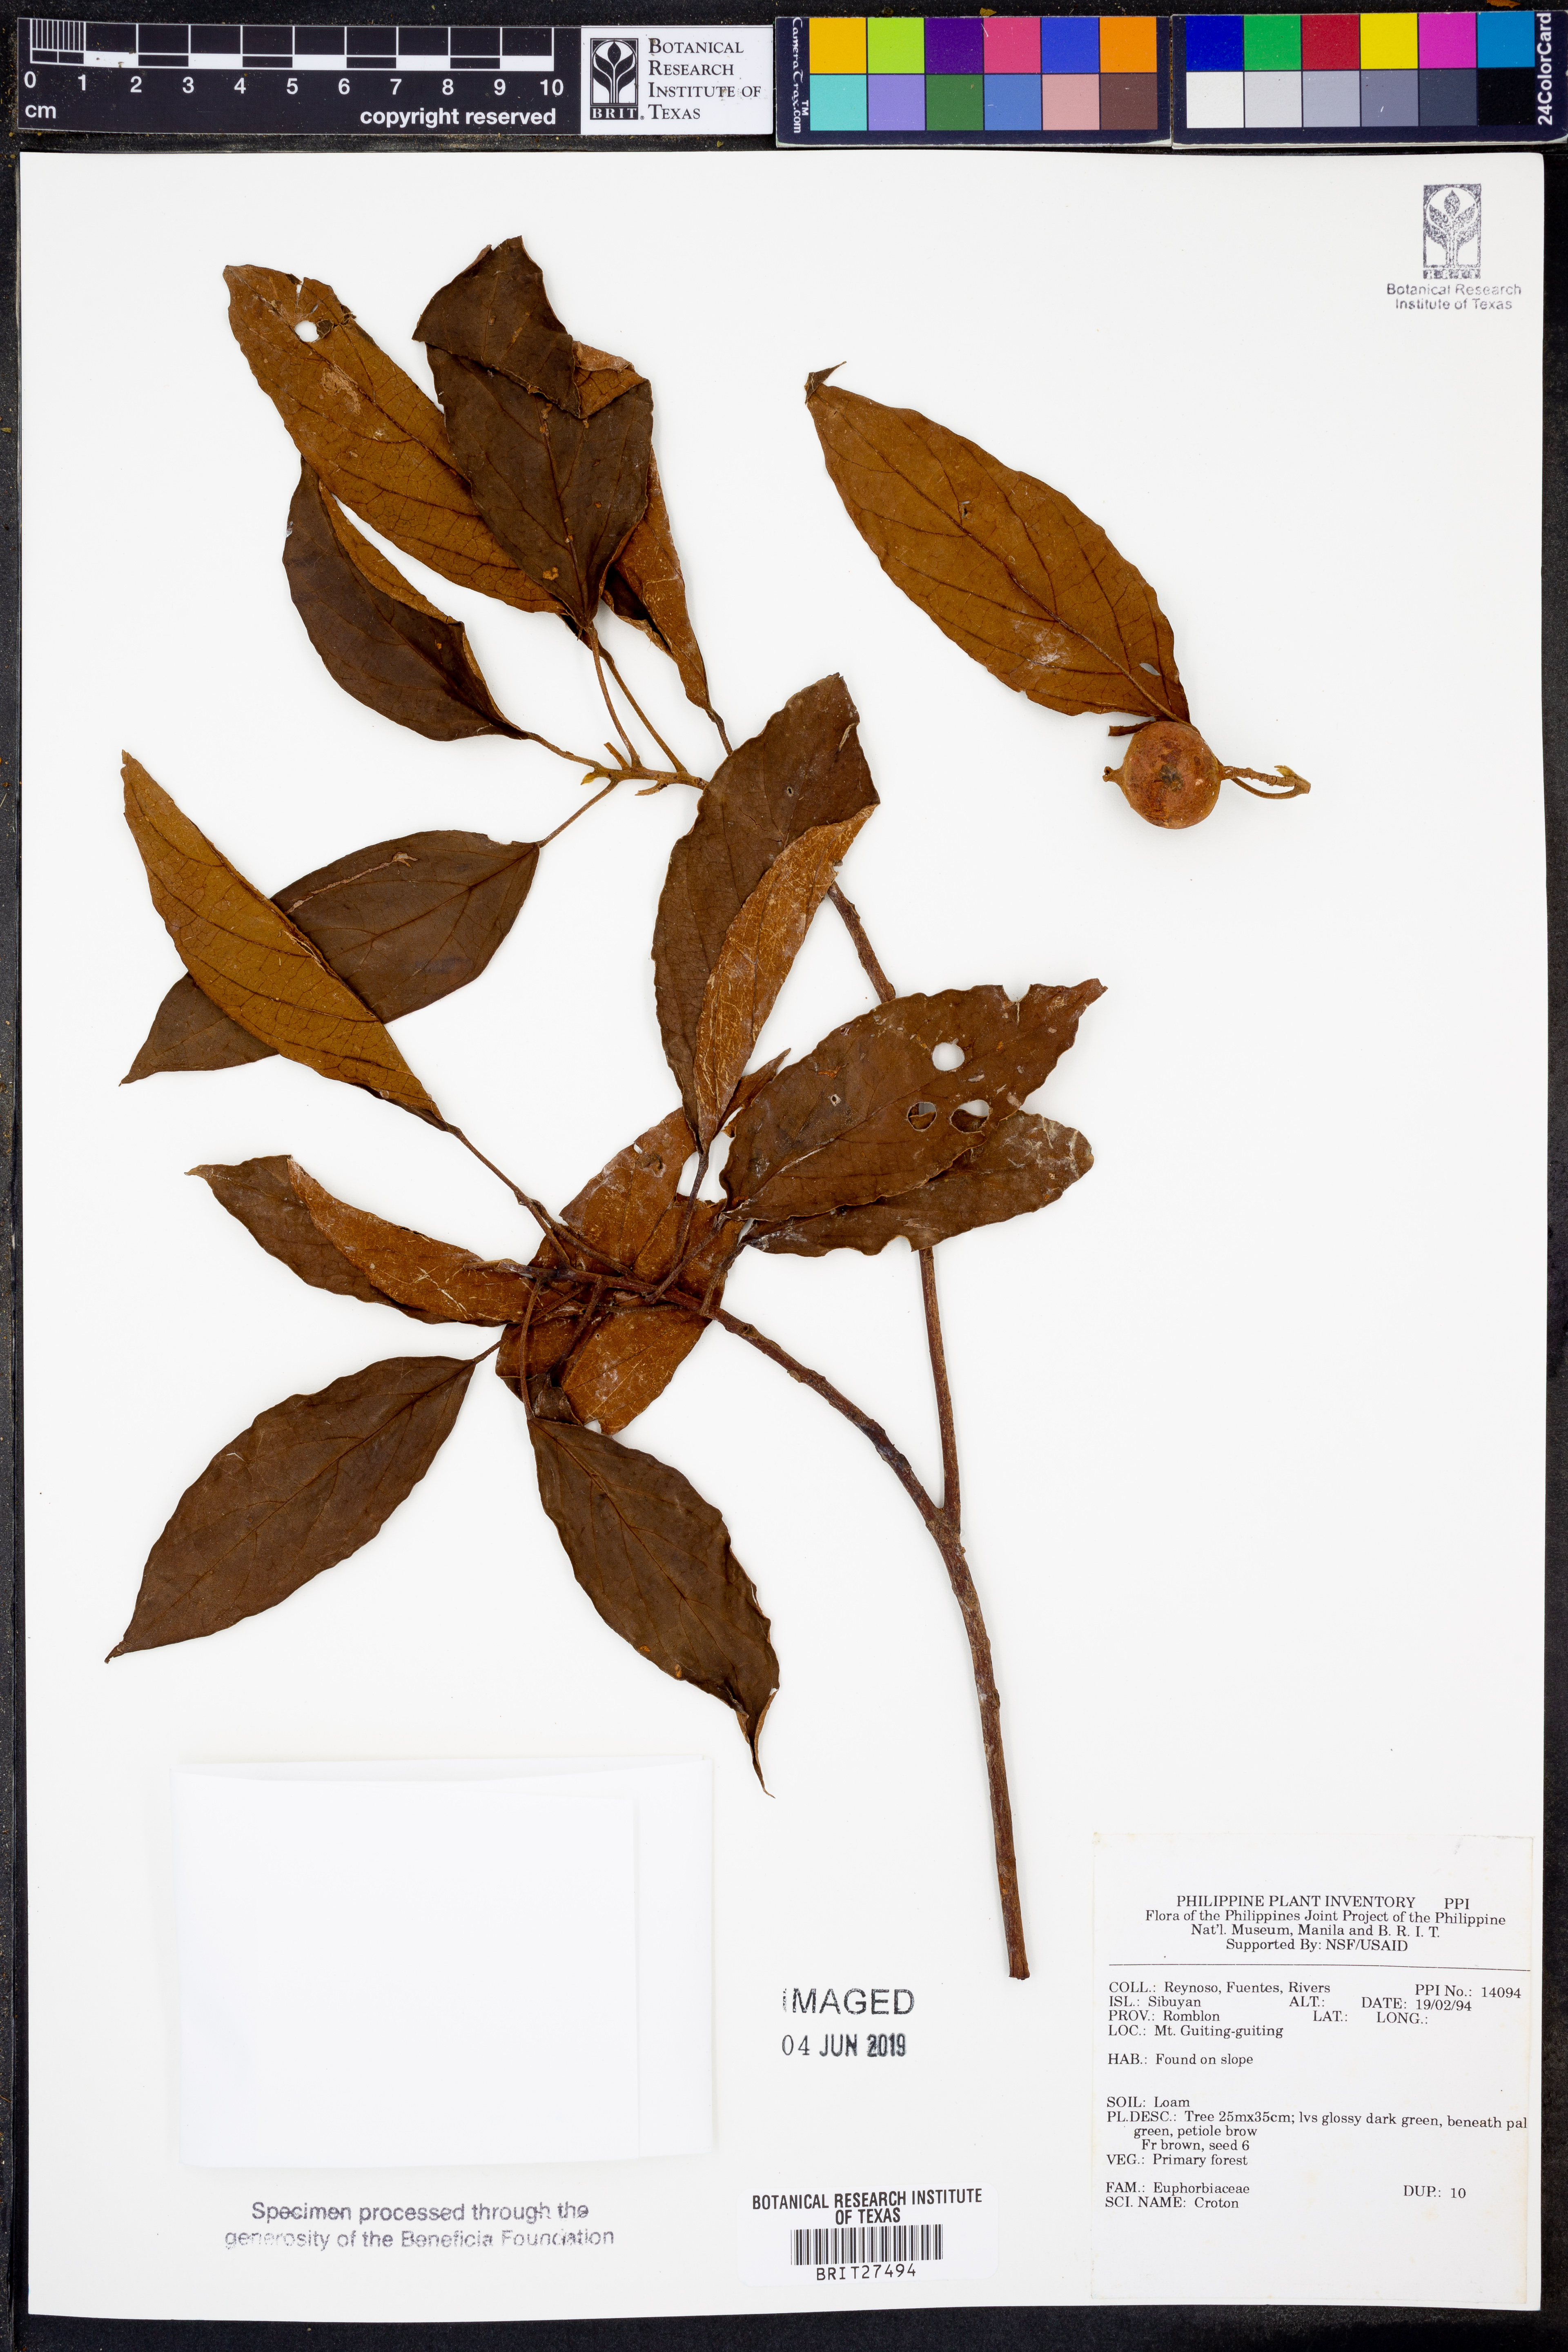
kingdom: Plantae
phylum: Tracheophyta
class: Magnoliopsida
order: Malpighiales
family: Euphorbiaceae
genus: Croton
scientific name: Croton
